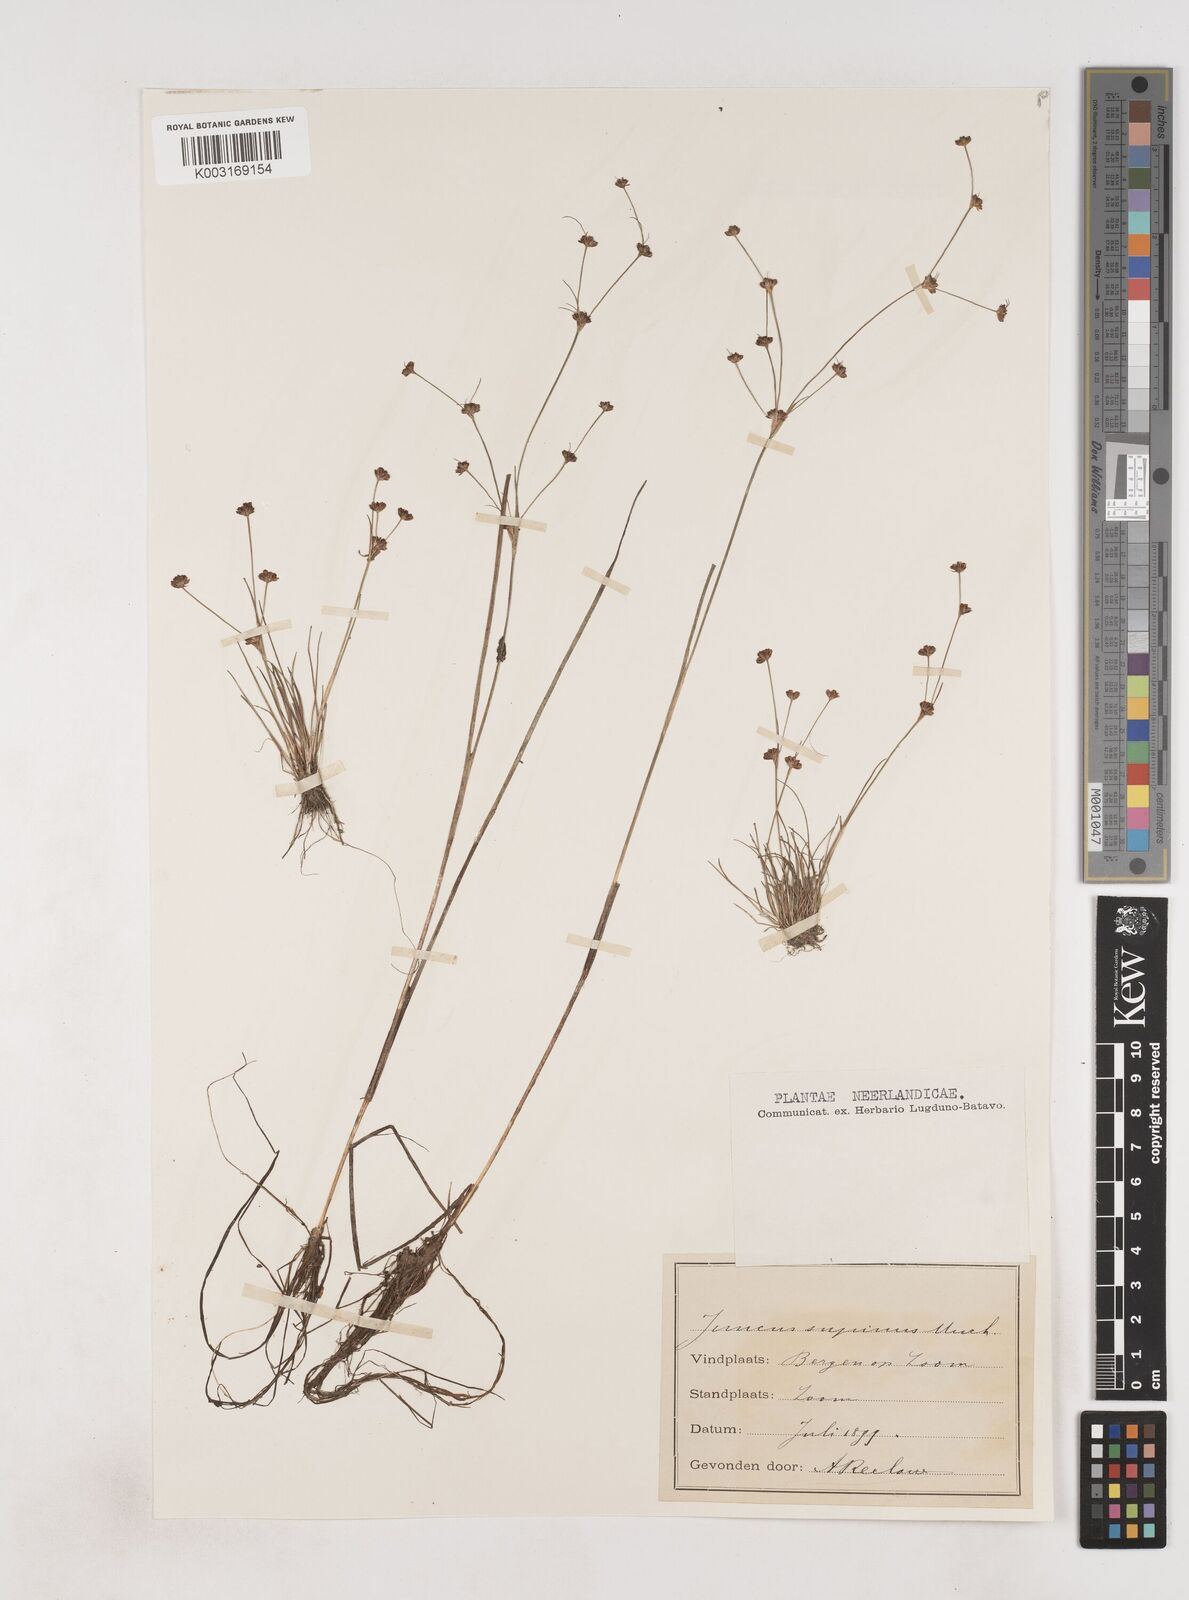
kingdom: Plantae
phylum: Tracheophyta
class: Liliopsida
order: Poales
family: Juncaceae
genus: Juncus
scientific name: Juncus bulbosus
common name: Bulbous rush
